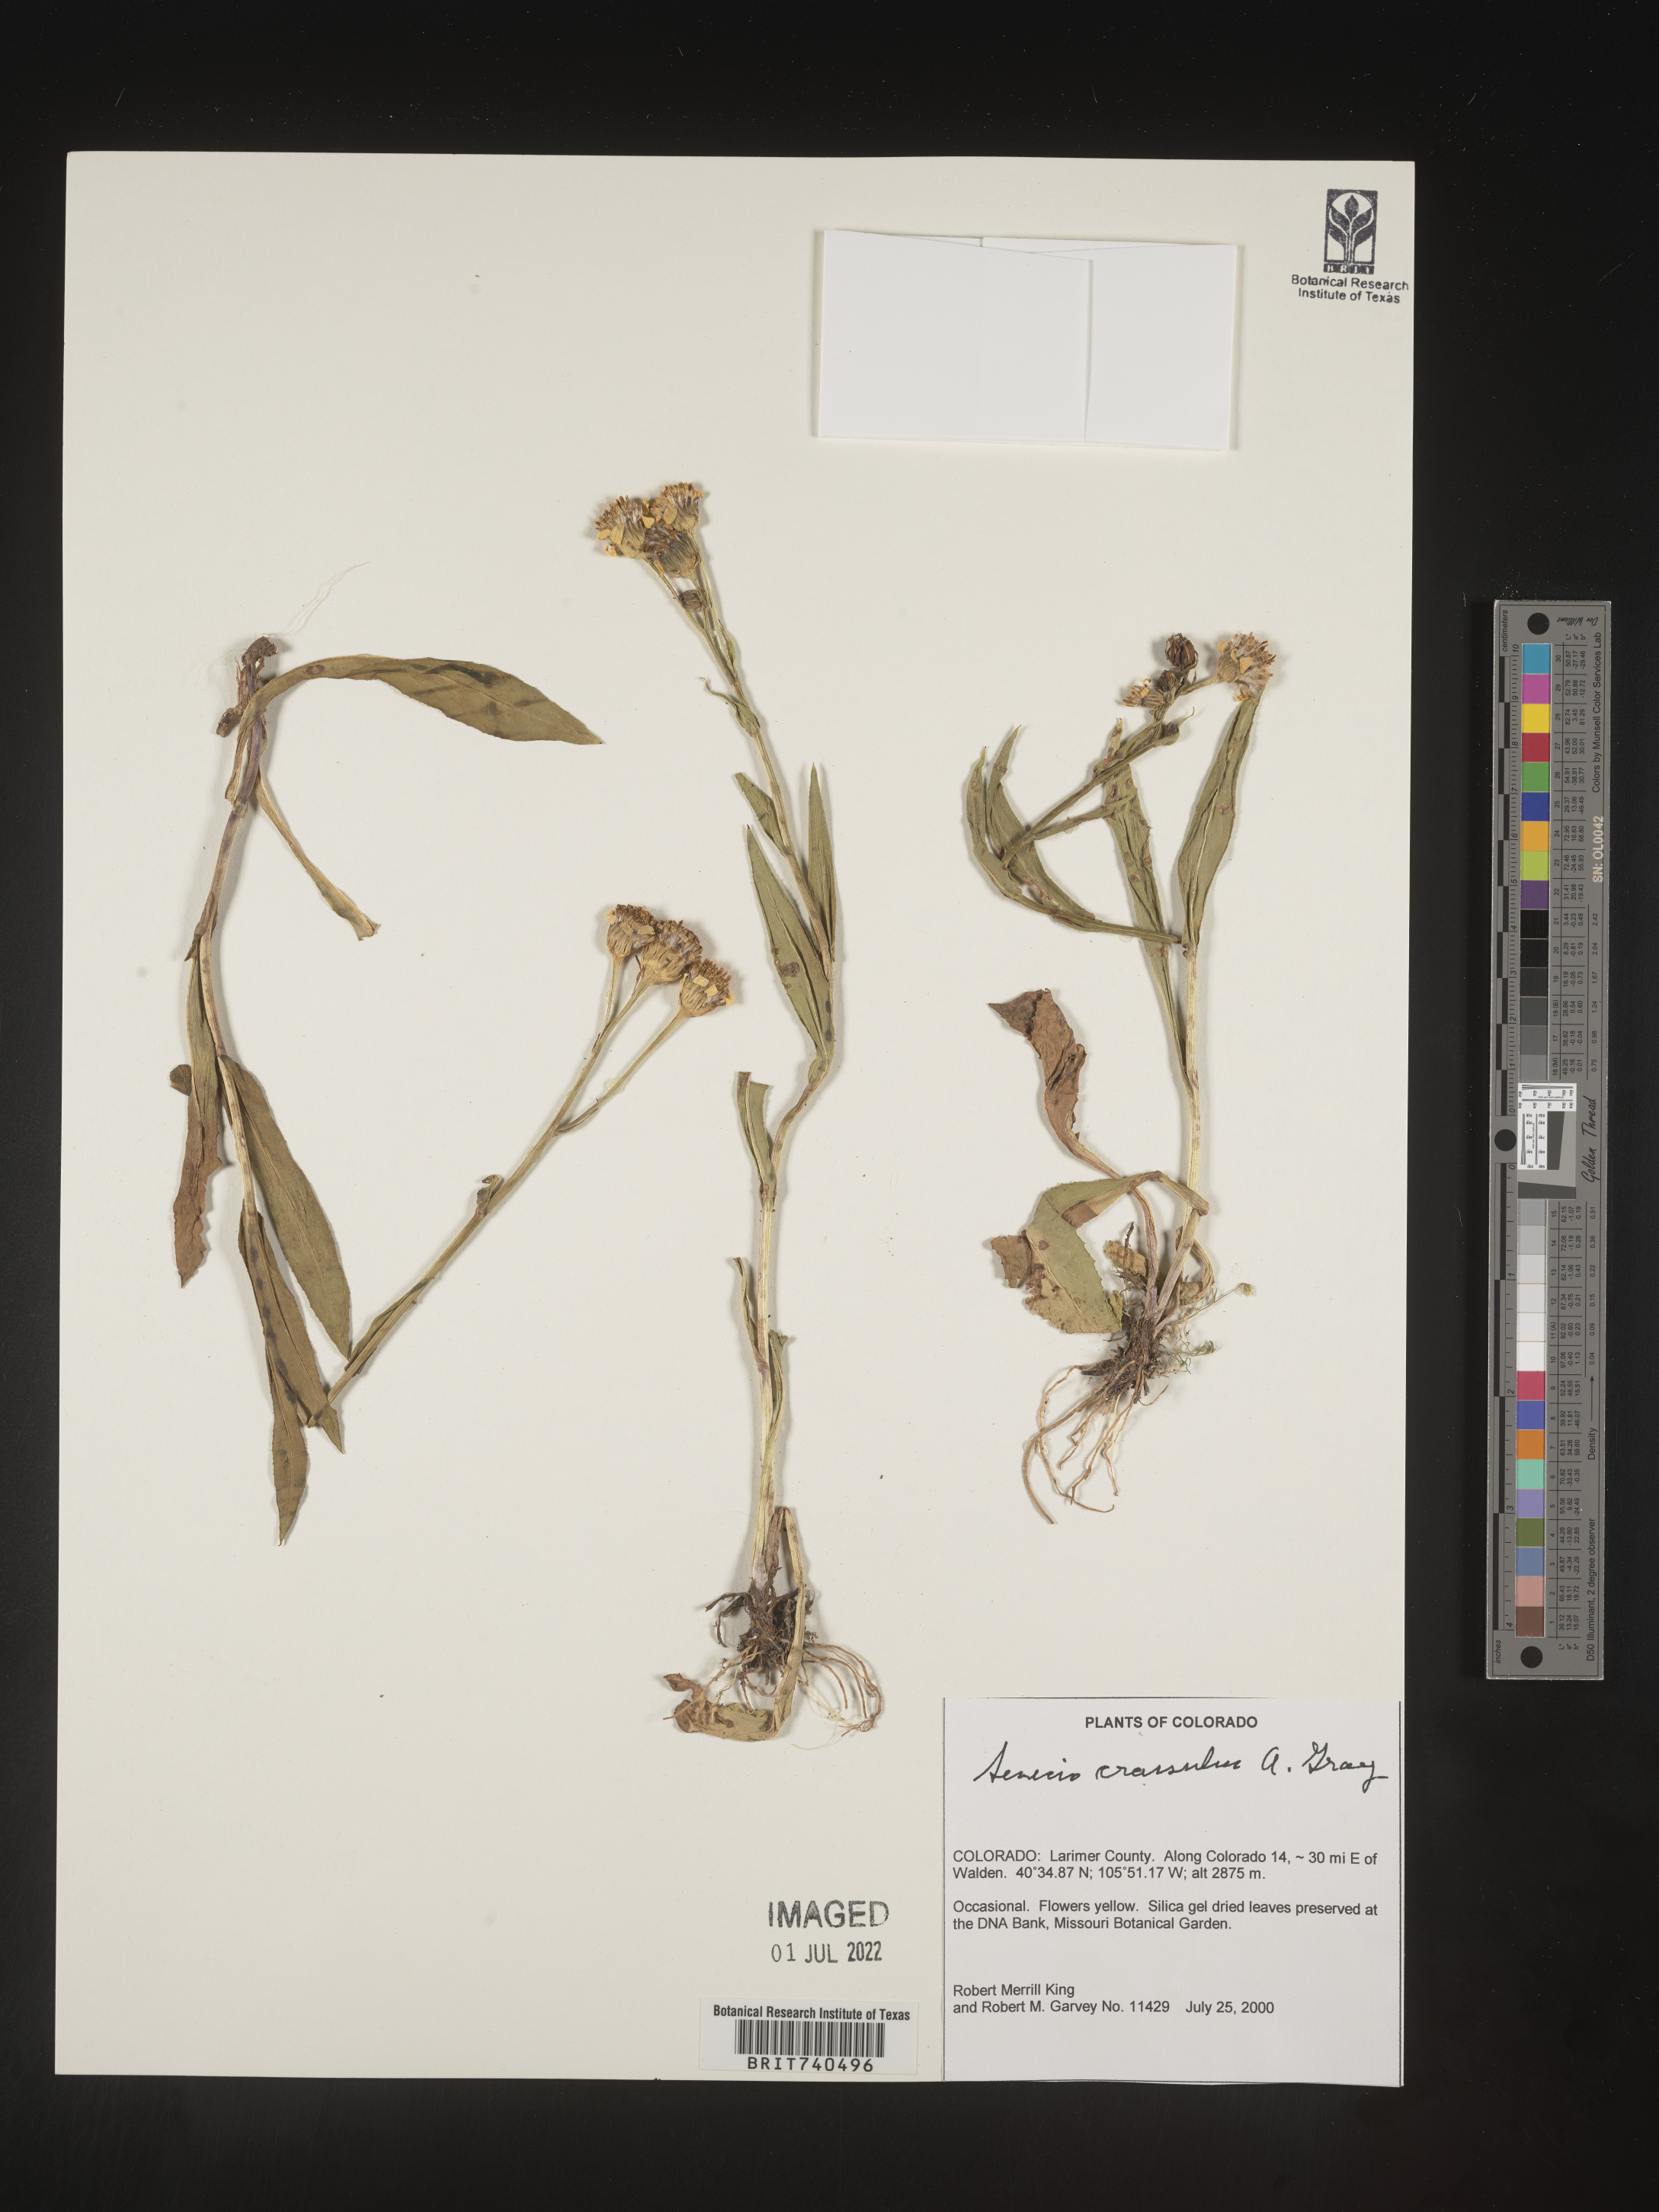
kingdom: Plantae
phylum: Tracheophyta
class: Magnoliopsida
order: Asterales
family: Asteraceae
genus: Senecio
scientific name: Senecio crassulus
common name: Mountain-meadow butterweed
